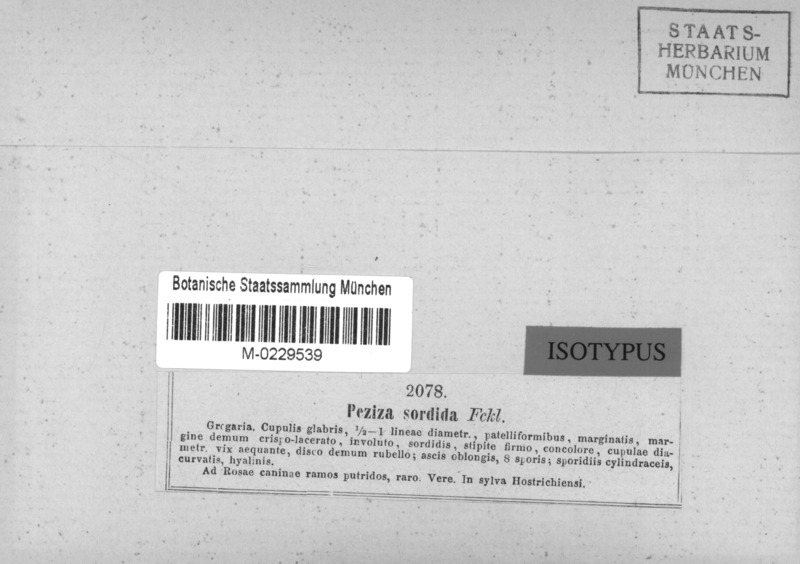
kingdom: Fungi
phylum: Ascomycota
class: Leotiomycetes
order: Helotiales
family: Pezizellaceae
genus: Calycina
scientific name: Calycina vulgaris
